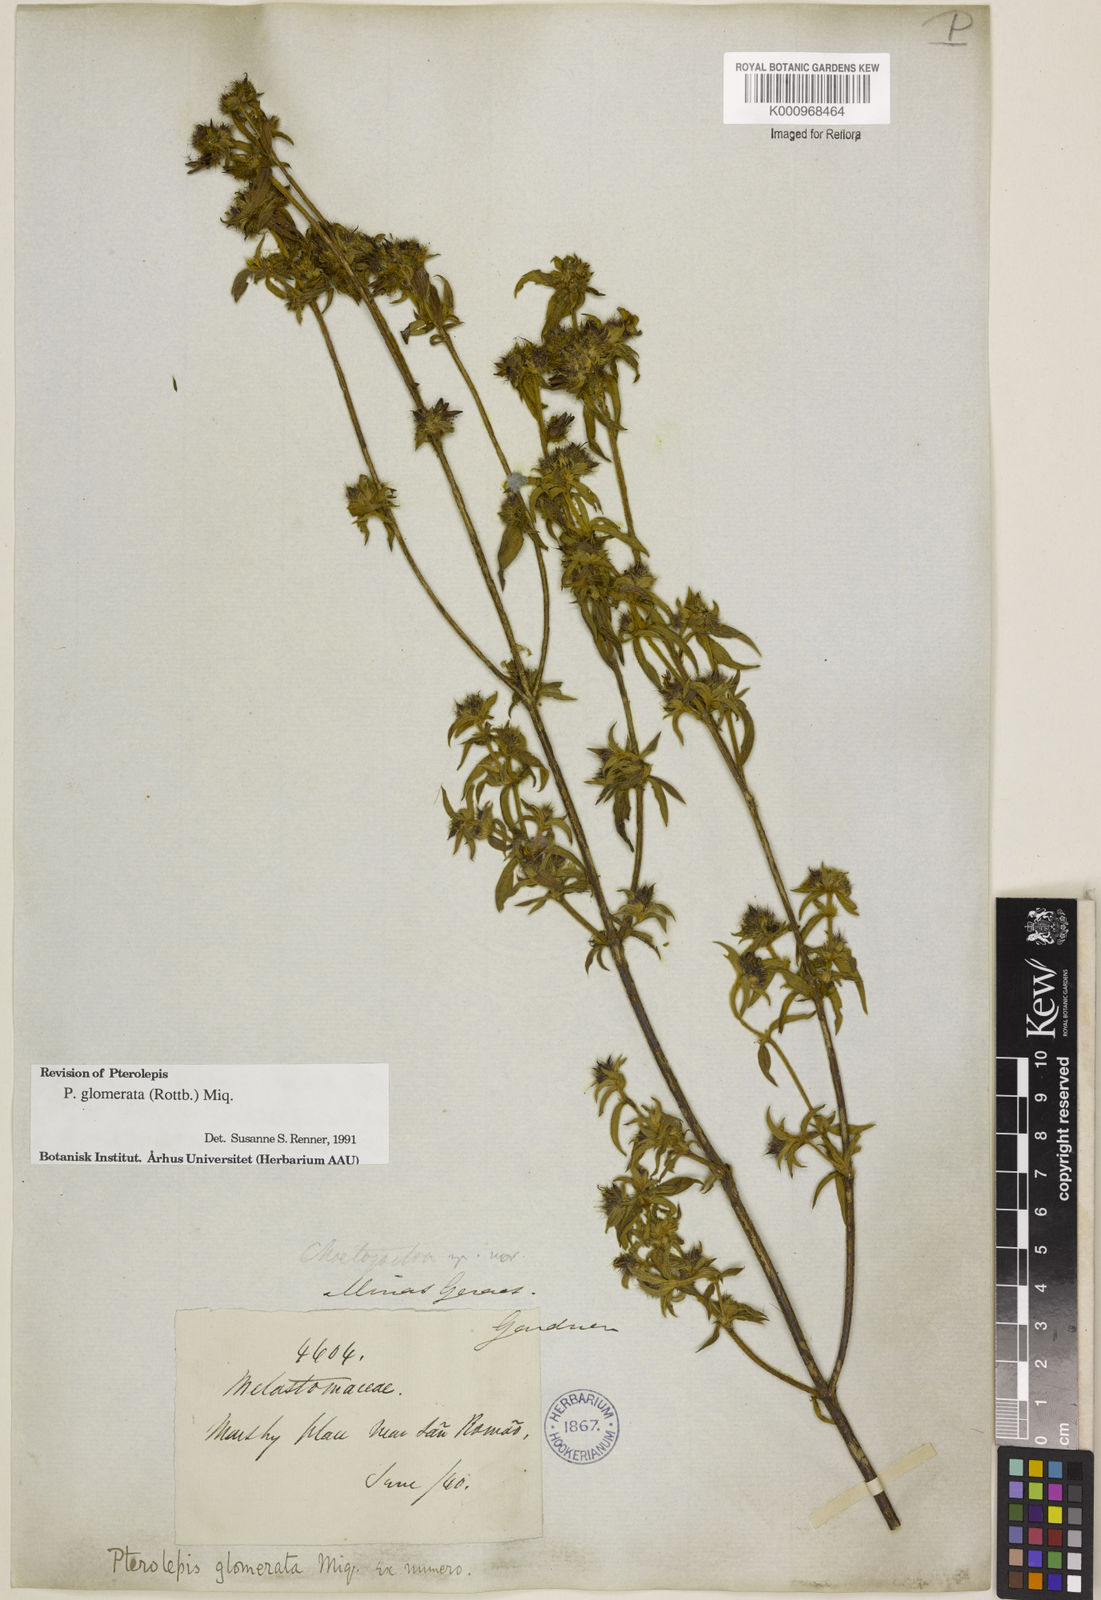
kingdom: Plantae
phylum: Tracheophyta
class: Magnoliopsida
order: Myrtales
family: Melastomataceae
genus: Pterolepis
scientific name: Pterolepis glomerata
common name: False meadowbeauty
